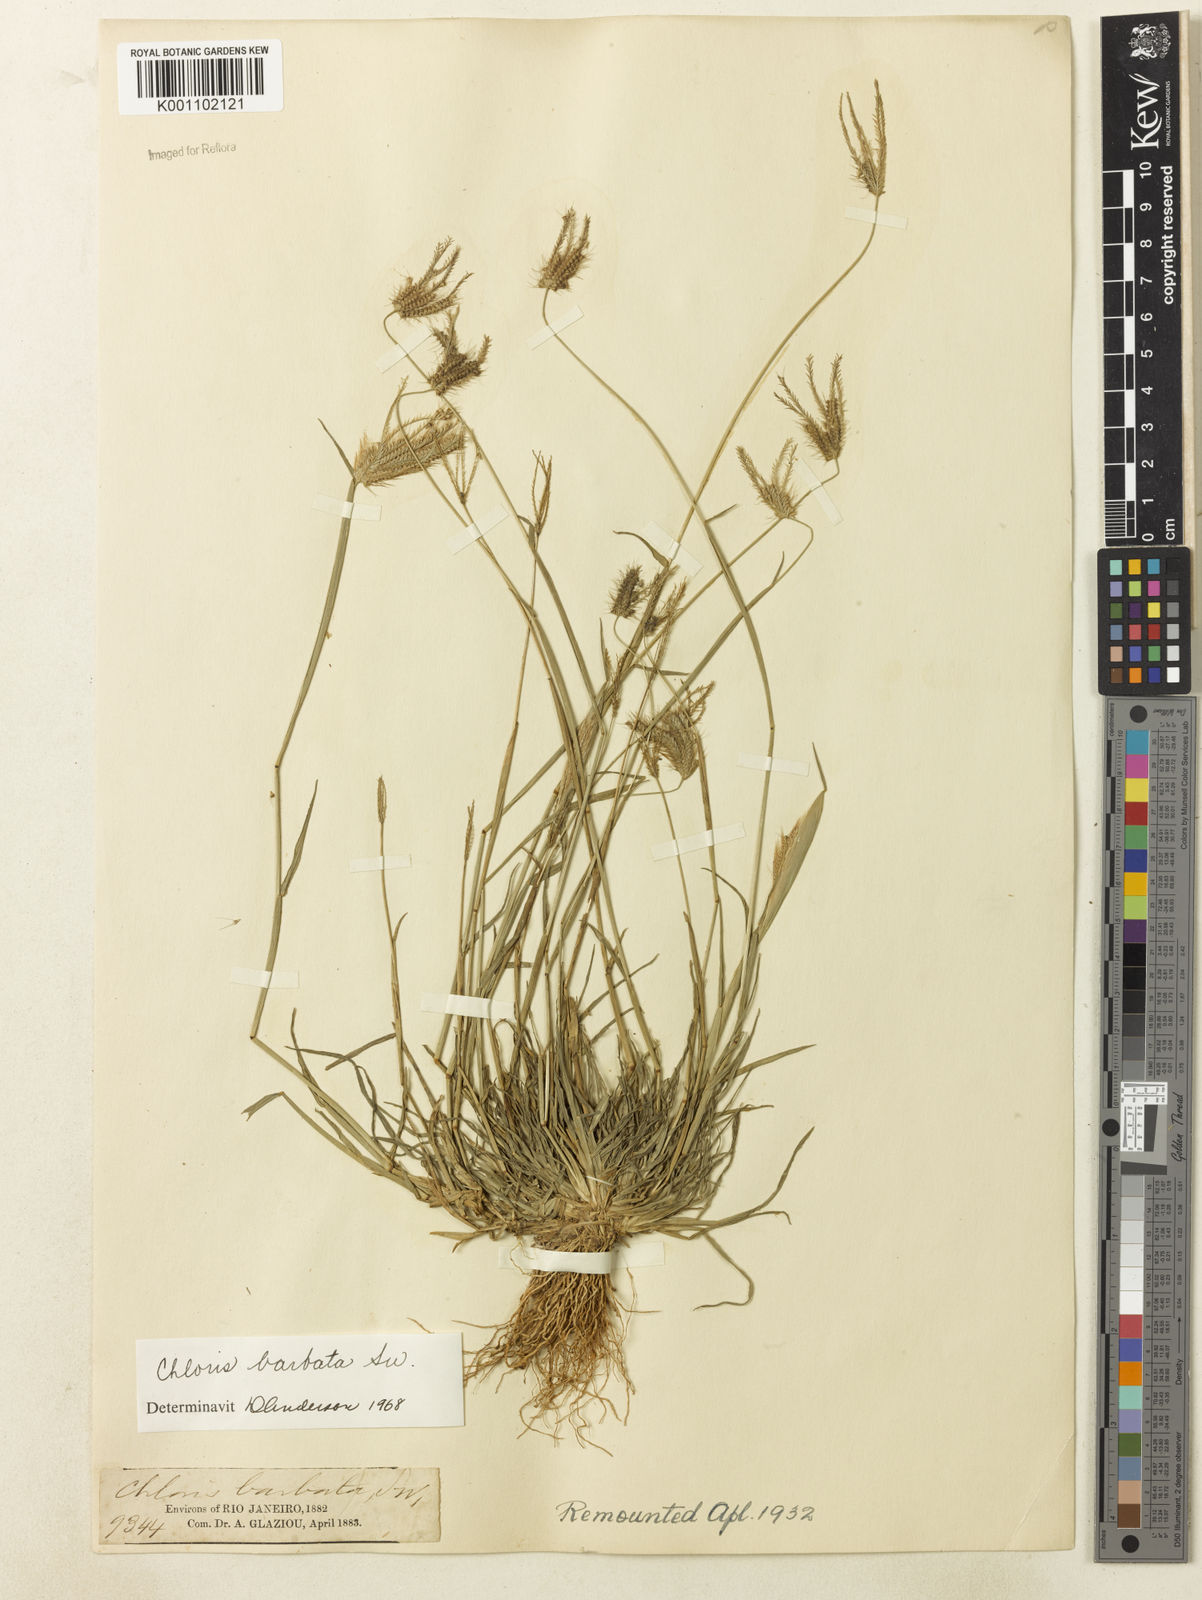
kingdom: Plantae
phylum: Tracheophyta
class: Liliopsida
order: Poales
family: Poaceae
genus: Chloris
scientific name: Chloris barbata
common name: Swollen fingergrass
